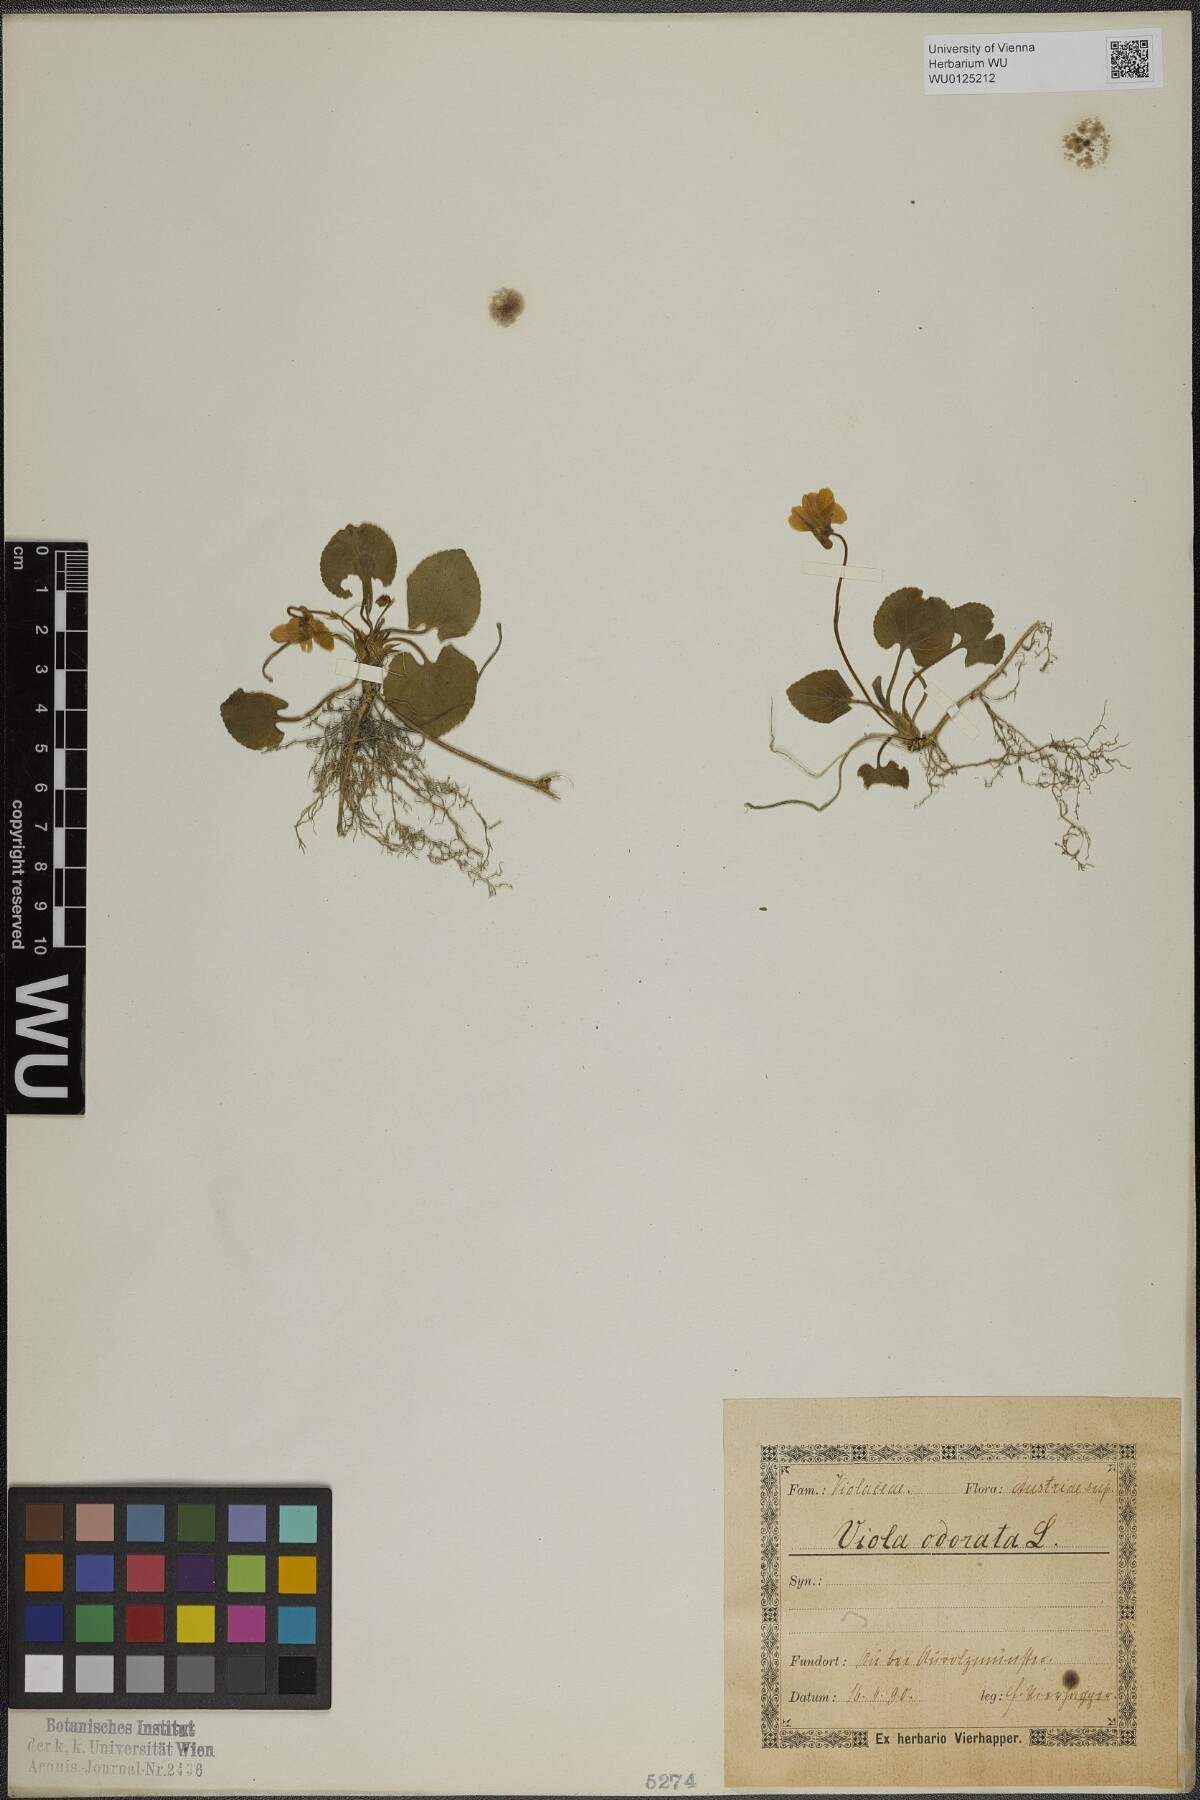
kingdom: Plantae
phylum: Tracheophyta
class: Magnoliopsida
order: Malpighiales
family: Violaceae
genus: Viola
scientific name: Viola odorata
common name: Sweet violet
